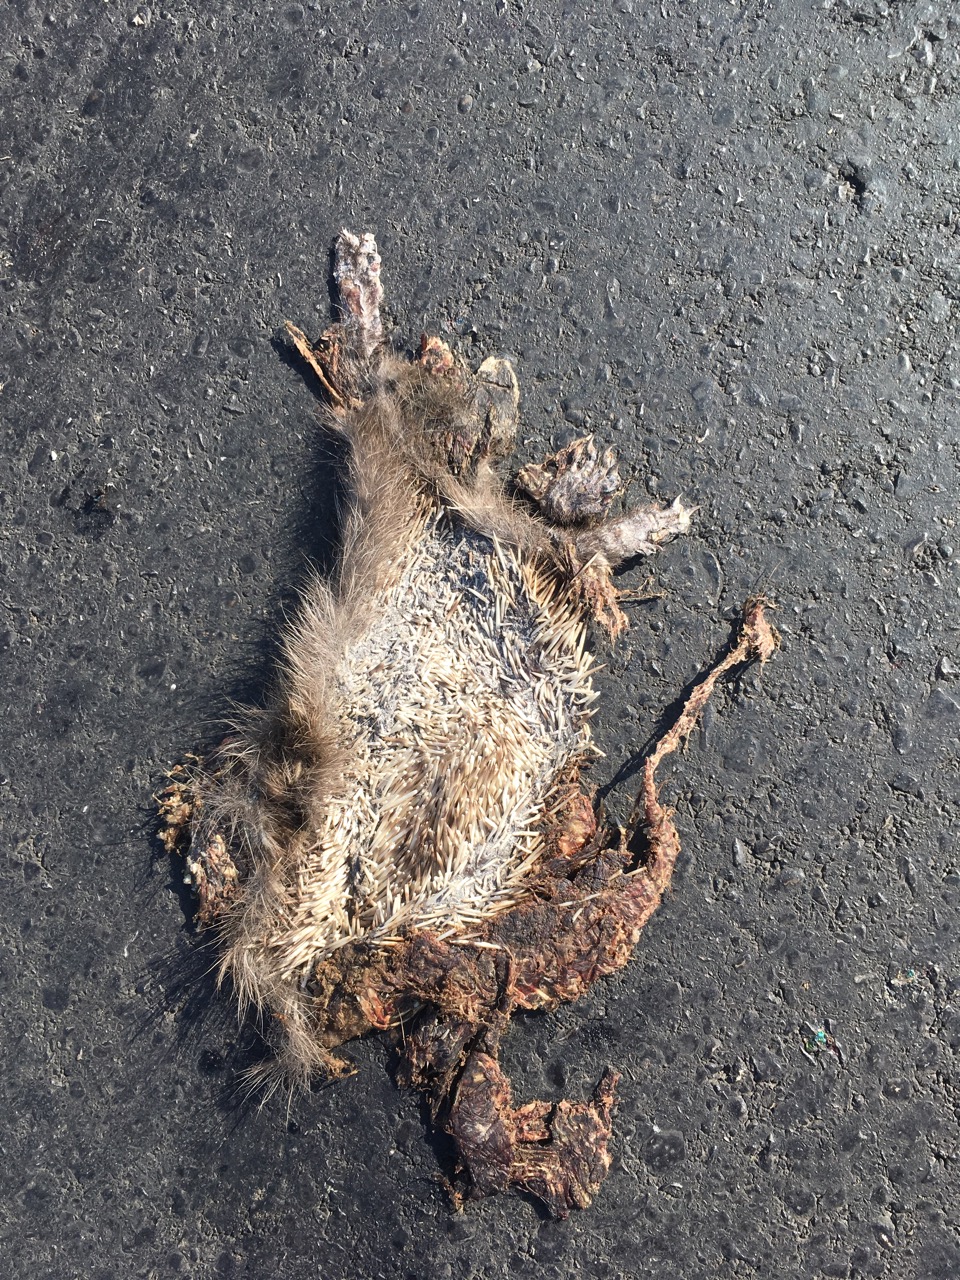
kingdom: Animalia
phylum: Chordata
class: Mammalia
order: Erinaceomorpha
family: Erinaceidae
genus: Erinaceus
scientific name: Erinaceus
